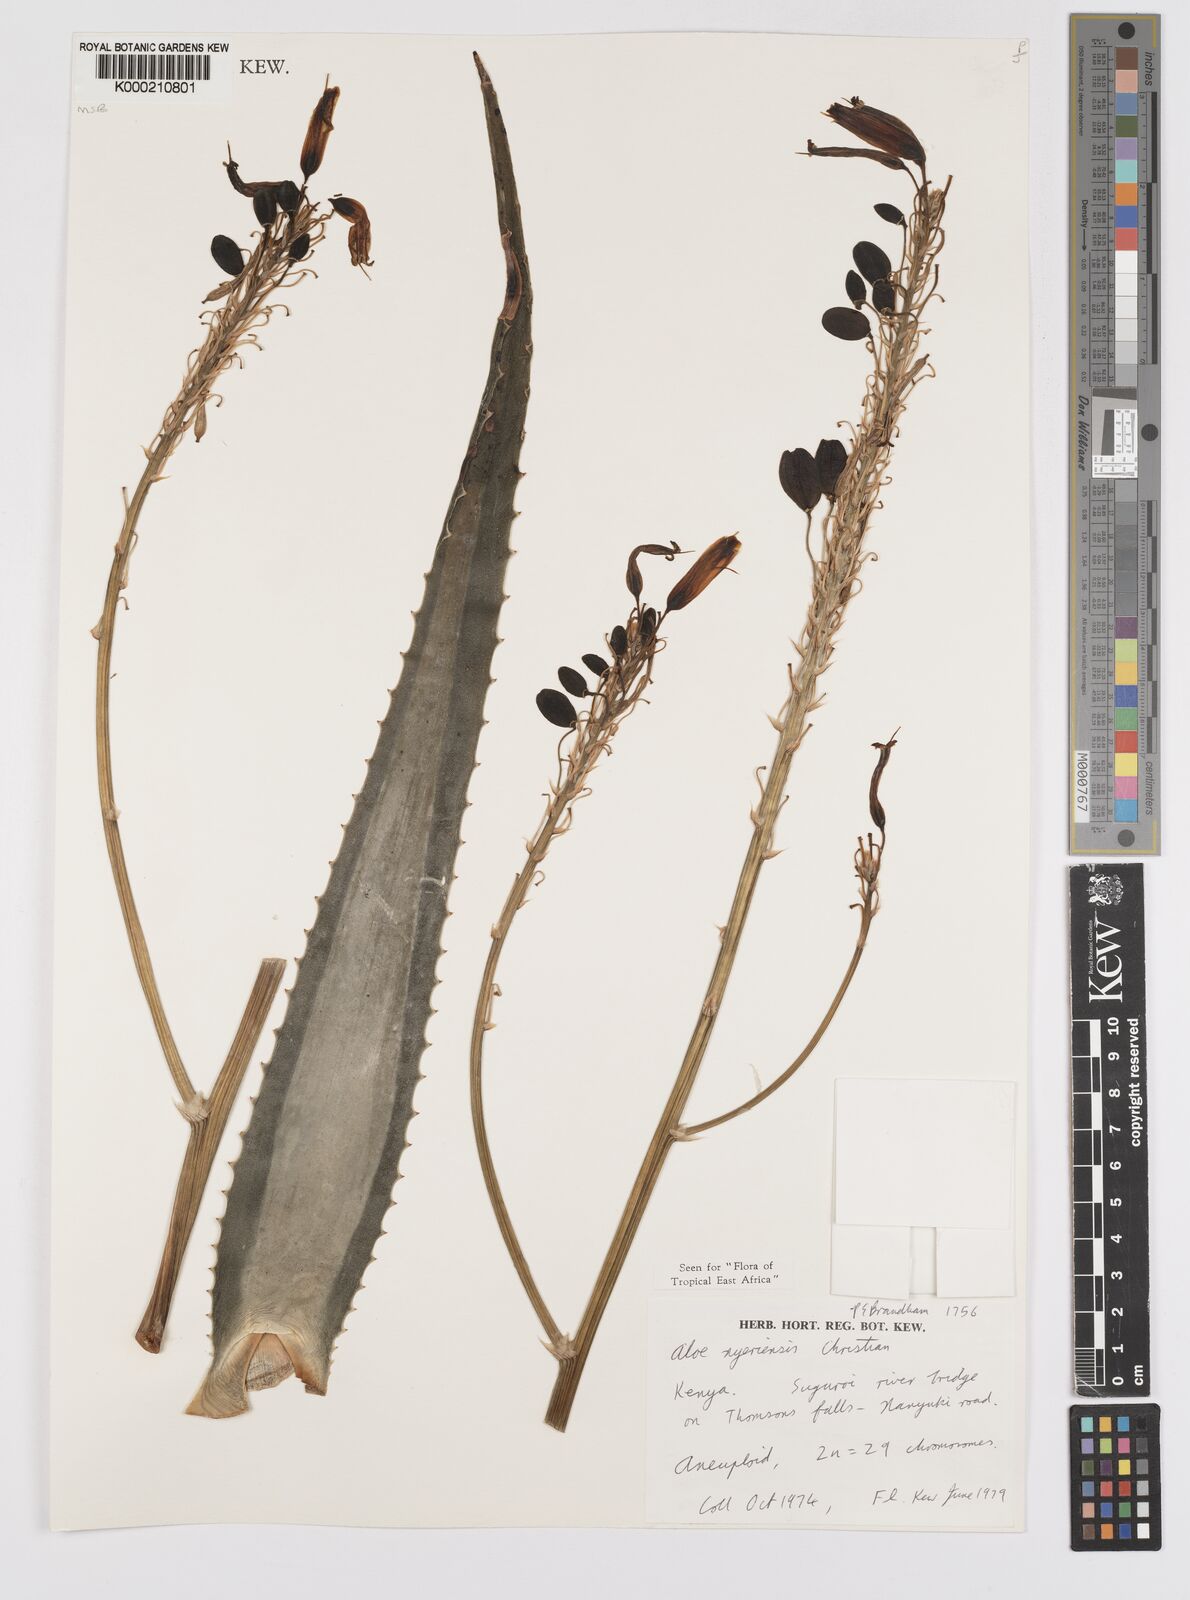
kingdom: Plantae
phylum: Tracheophyta
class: Liliopsida
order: Asparagales
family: Asphodelaceae
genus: Aloe
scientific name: Aloe nyeriensis
